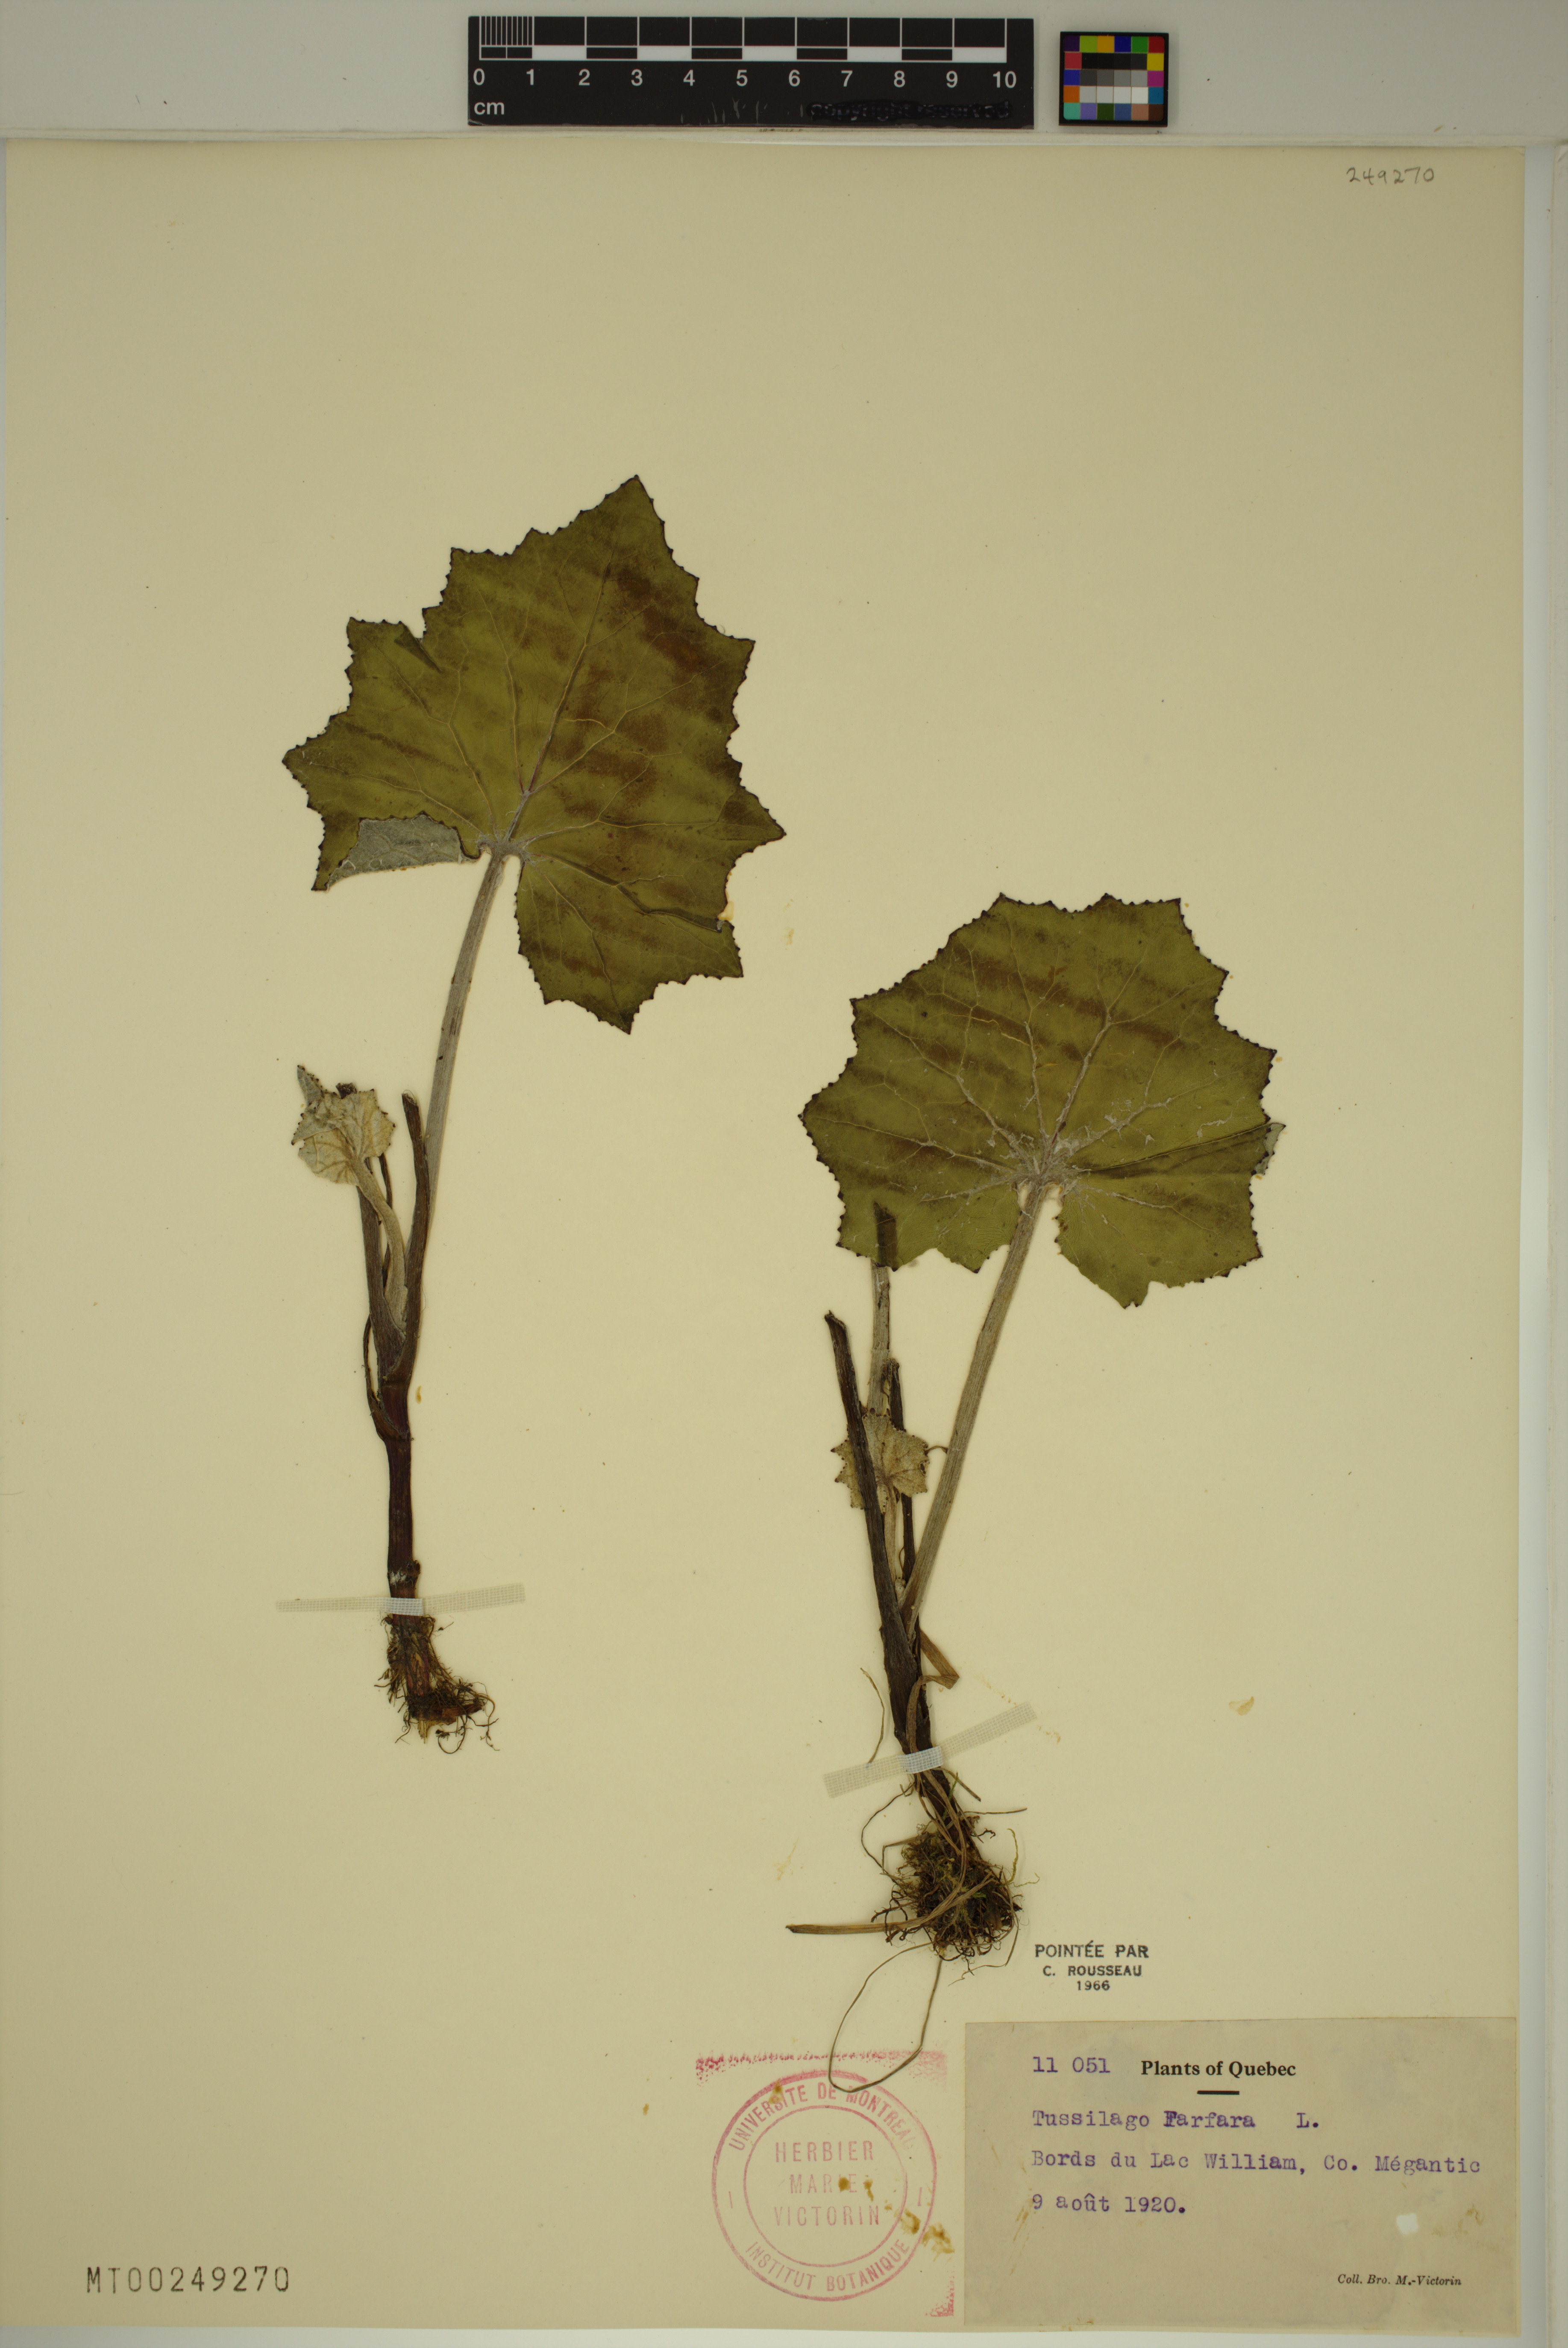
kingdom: Plantae
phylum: Tracheophyta
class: Magnoliopsida
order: Asterales
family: Asteraceae
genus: Tussilago
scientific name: Tussilago farfara
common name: Coltsfoot
